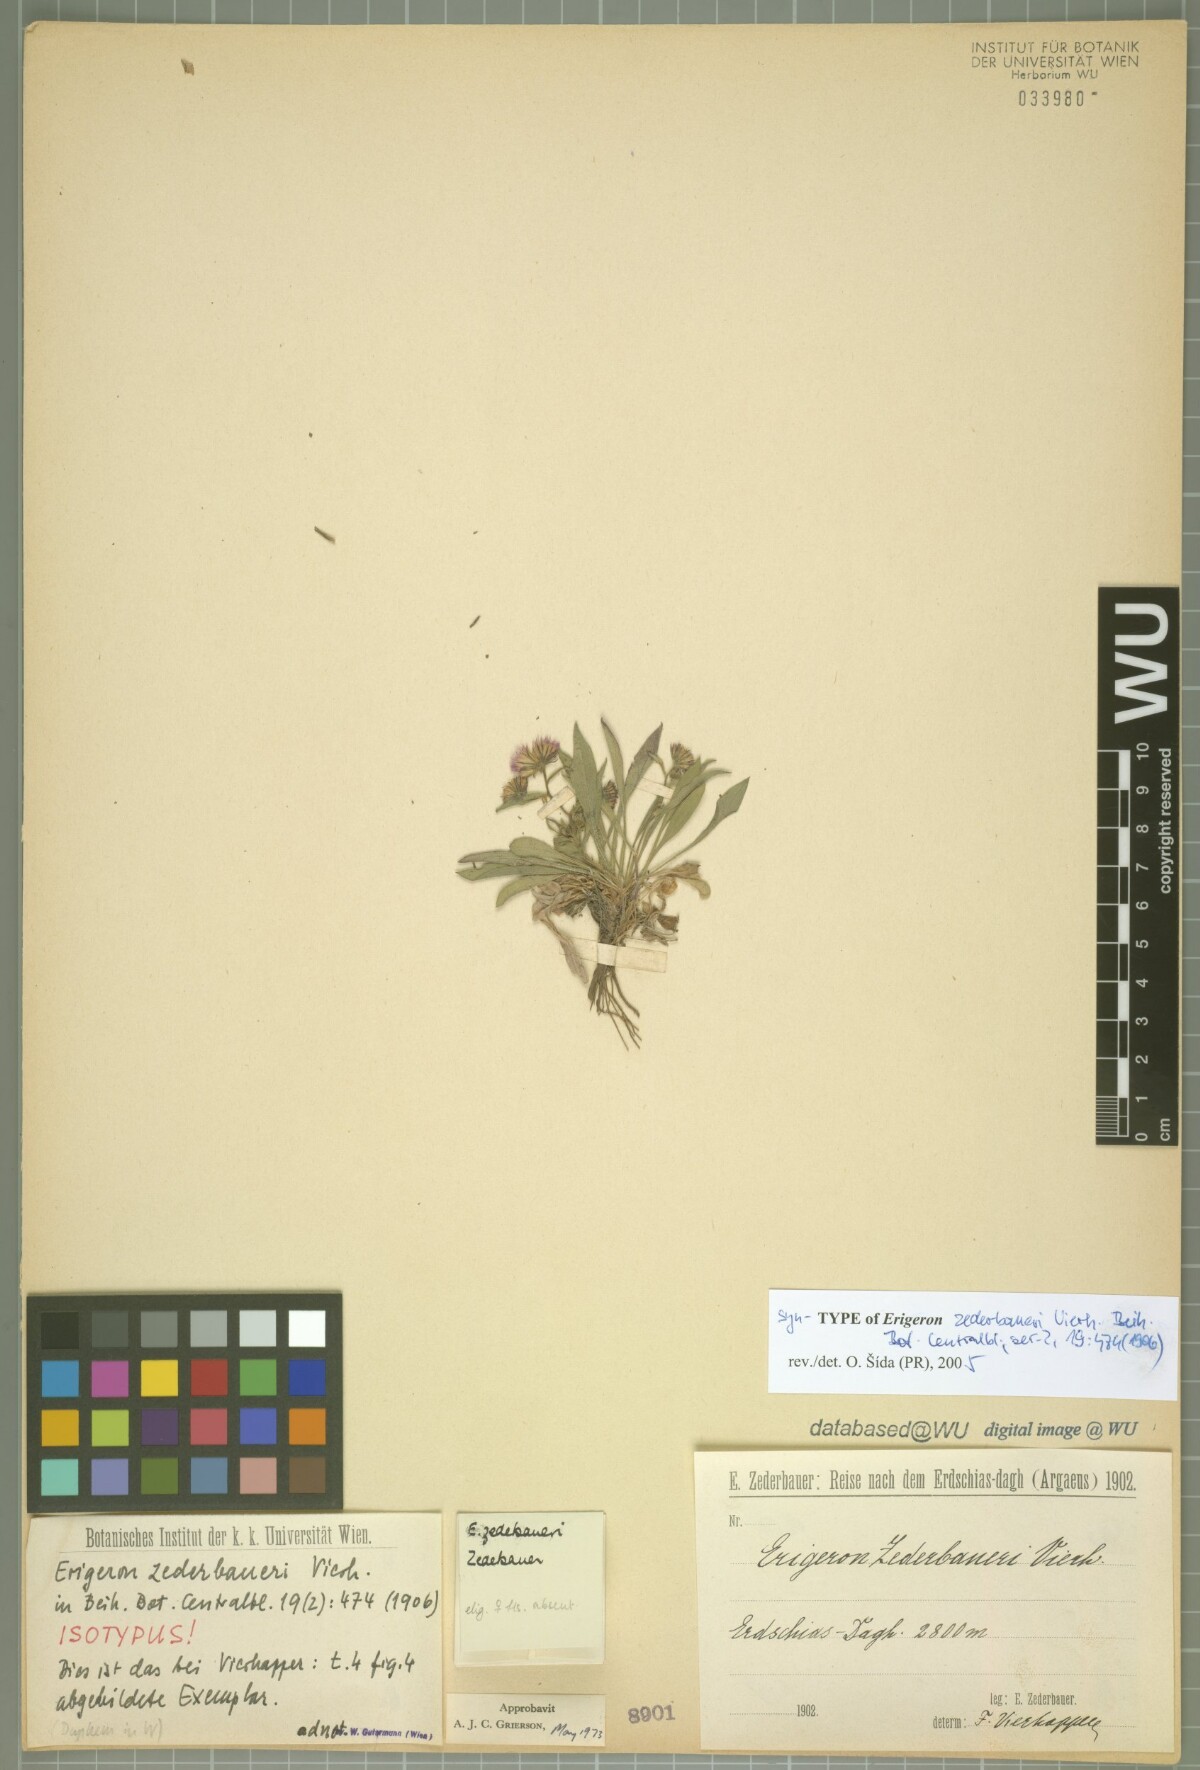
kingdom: Plantae
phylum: Tracheophyta
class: Magnoliopsida
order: Asterales
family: Asteraceae
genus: Erigeron
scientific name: Erigeron zederbaueri
